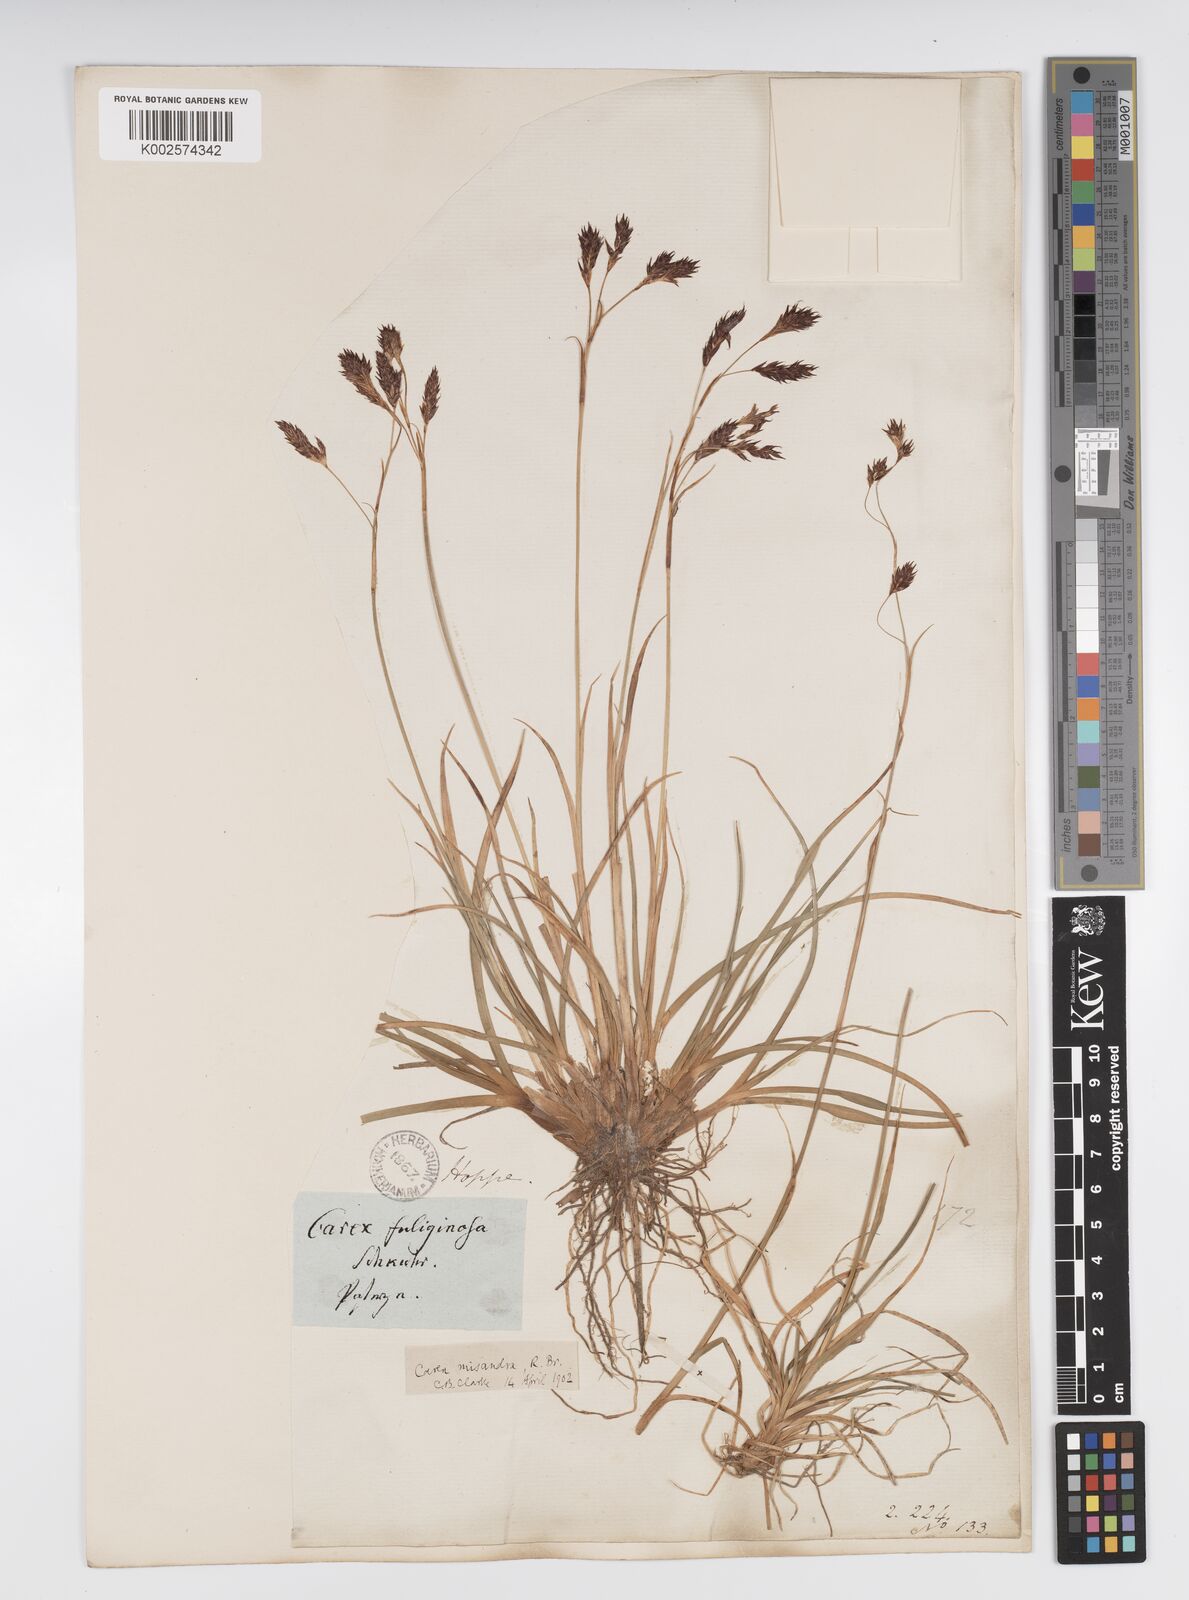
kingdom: Plantae
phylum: Tracheophyta
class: Liliopsida
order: Poales
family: Cyperaceae
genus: Carex
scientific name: Carex fuliginosa
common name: Few-flowered sedge
